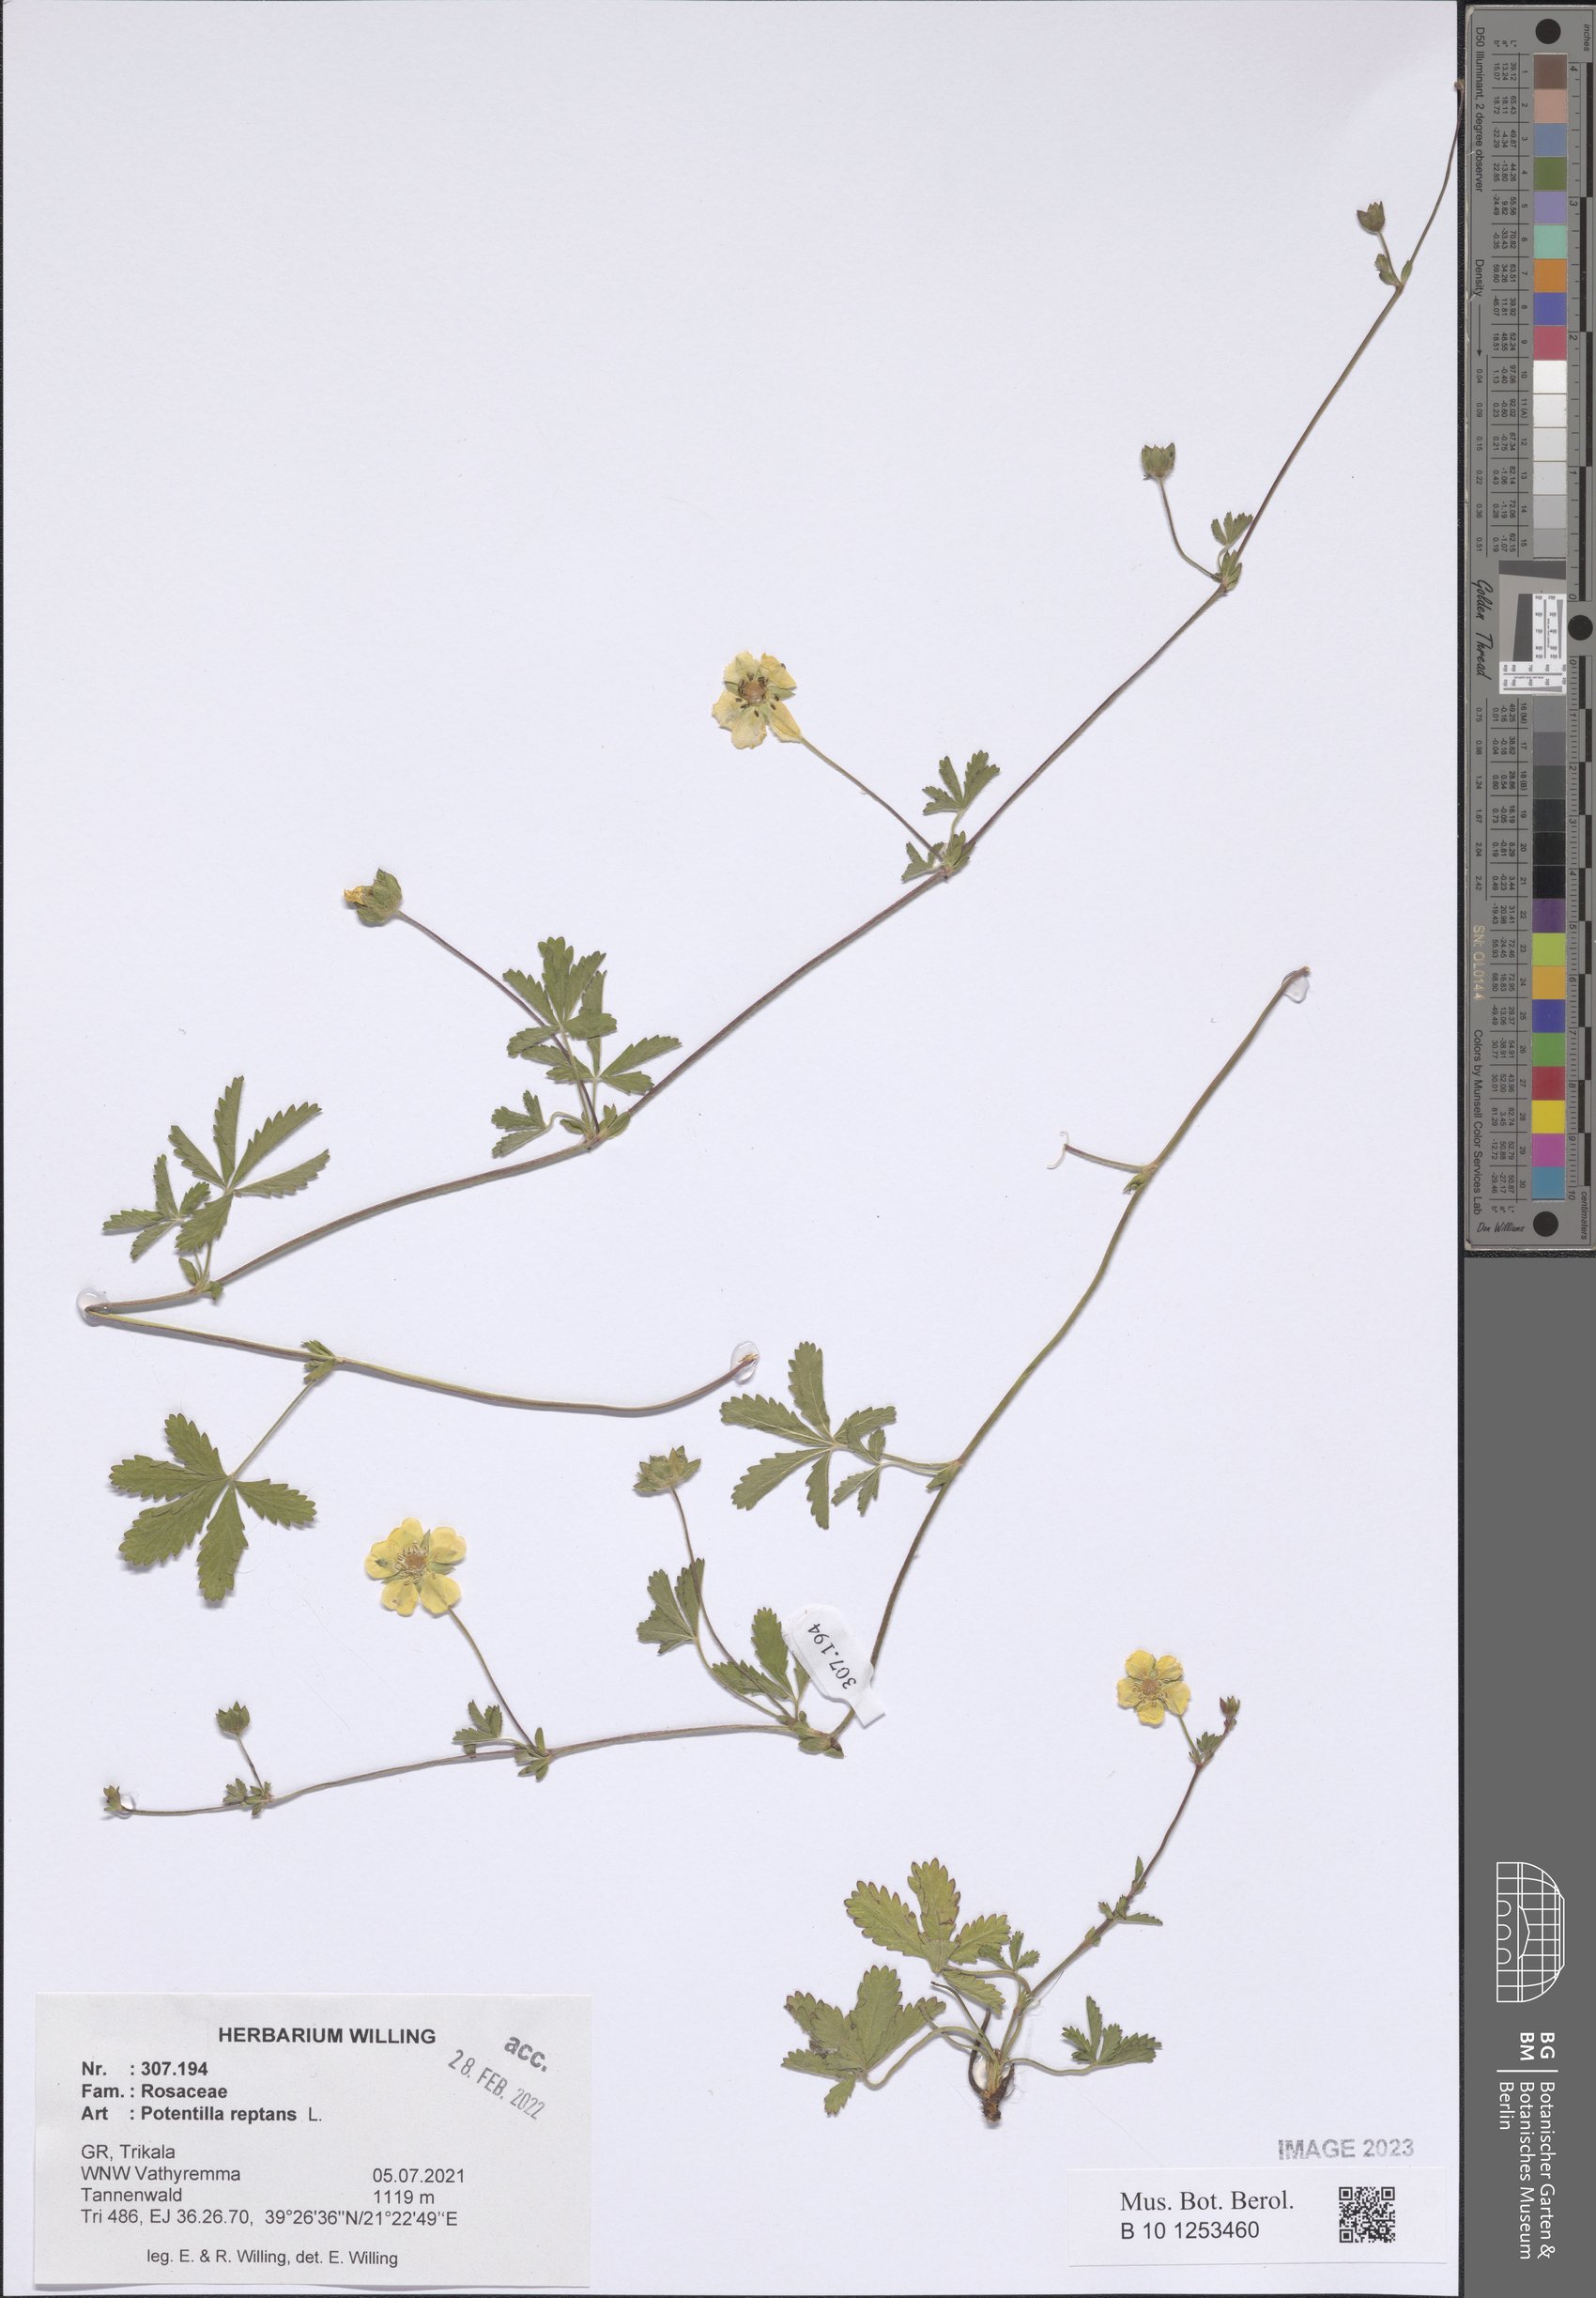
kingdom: Plantae
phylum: Tracheophyta
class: Magnoliopsida
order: Rosales
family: Rosaceae
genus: Potentilla
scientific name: Potentilla reptans
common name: Creeping cinquefoil
